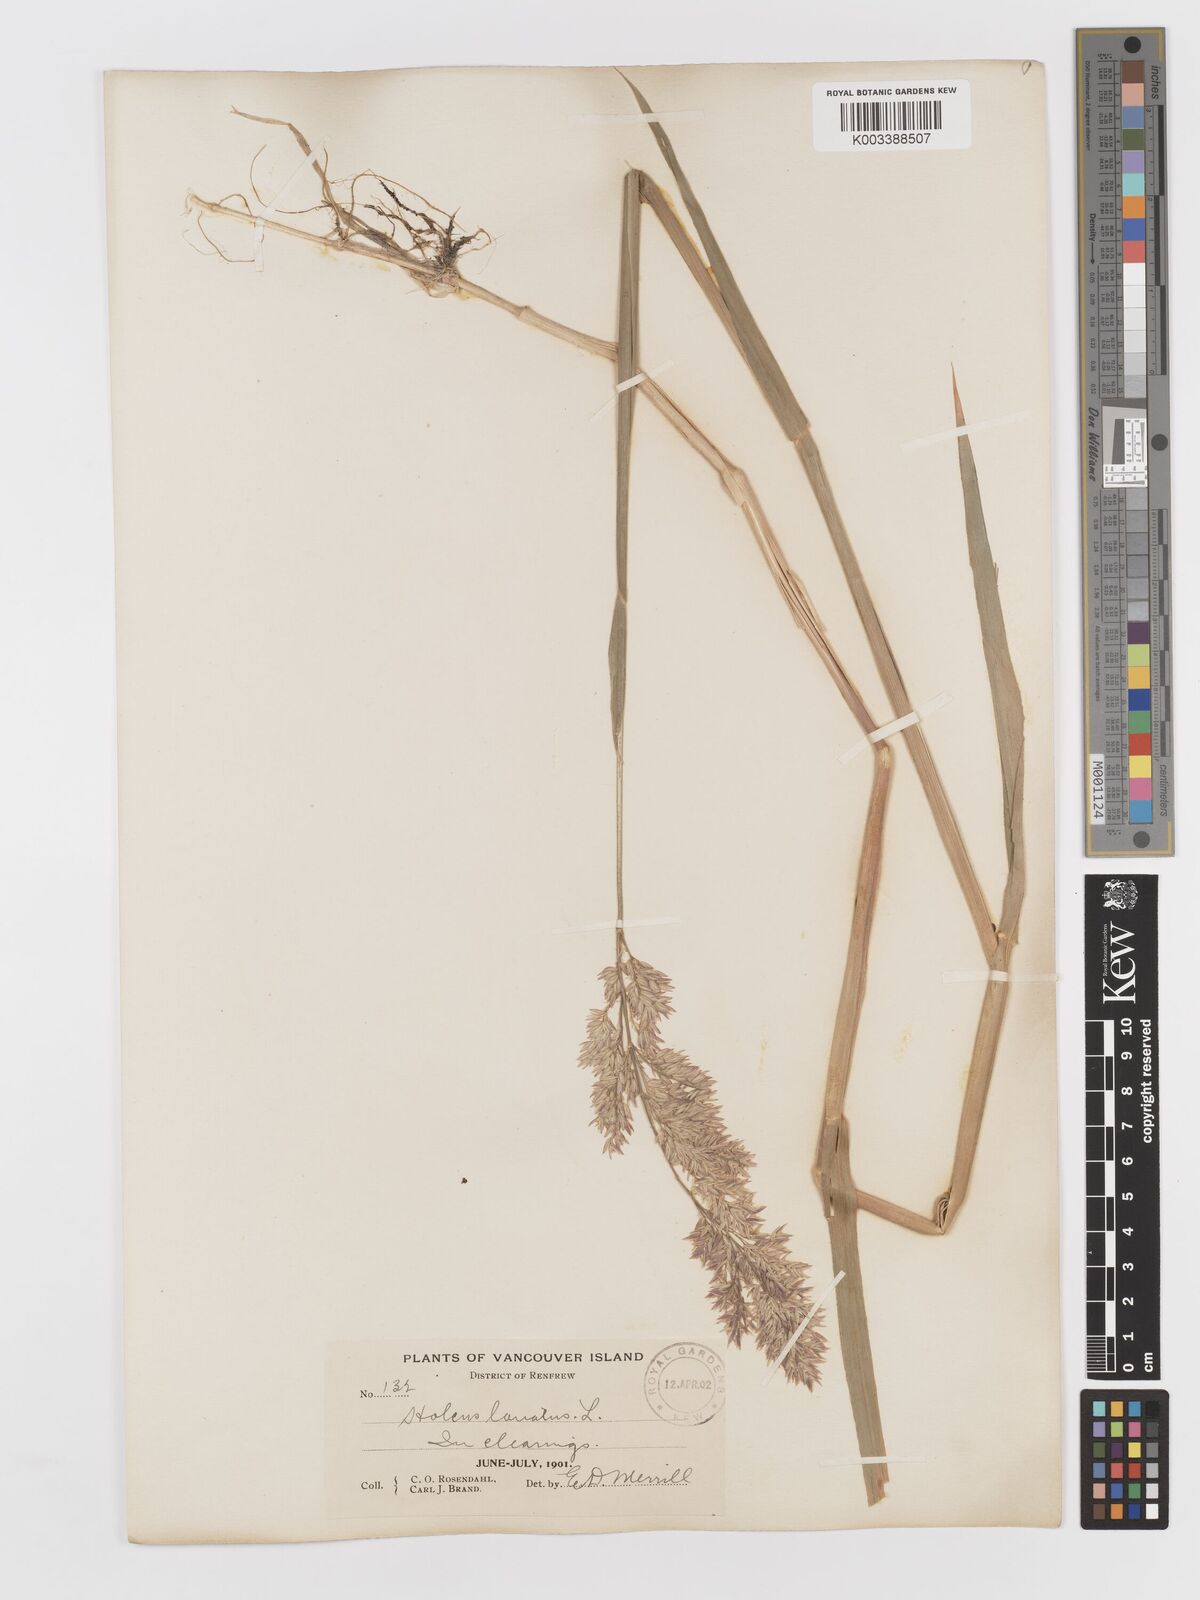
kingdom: Plantae
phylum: Tracheophyta
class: Liliopsida
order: Poales
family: Poaceae
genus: Holcus
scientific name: Holcus lanatus
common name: Yorkshire-fog
